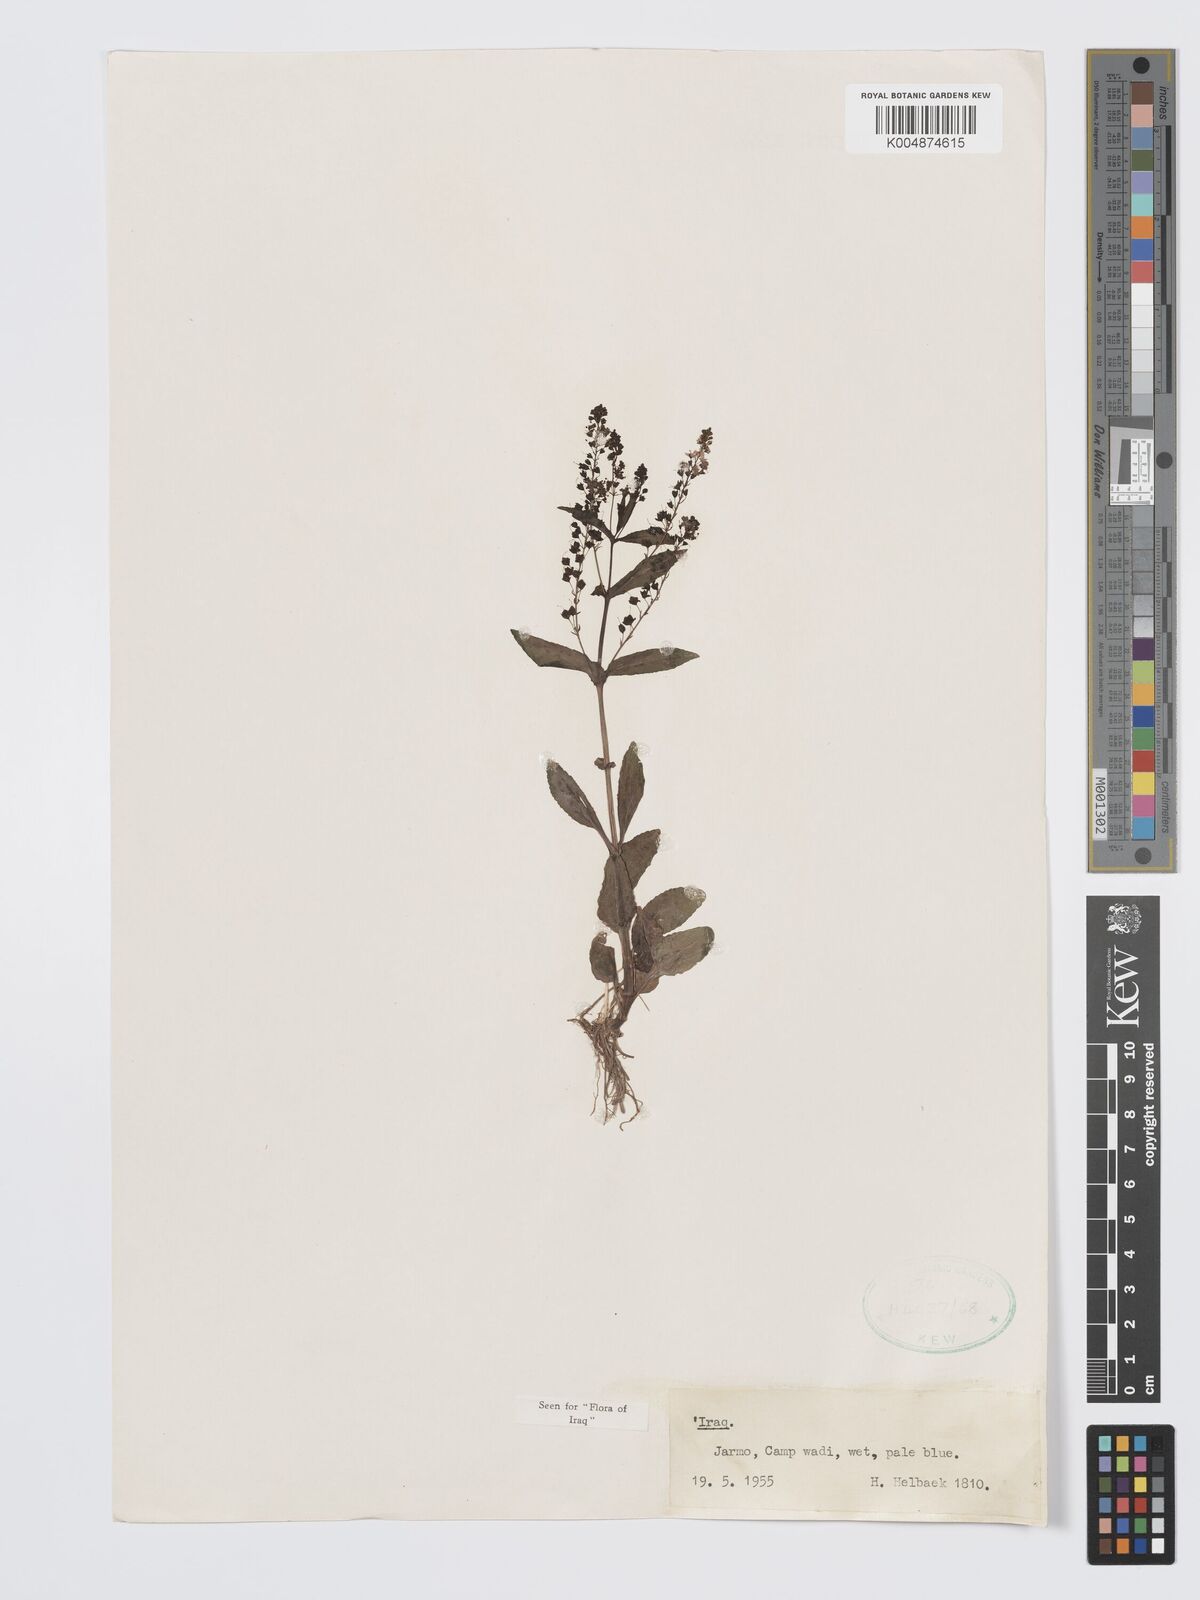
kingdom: Plantae
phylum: Tracheophyta
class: Magnoliopsida
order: Lamiales
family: Plantaginaceae
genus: Veronica
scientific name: Veronica
